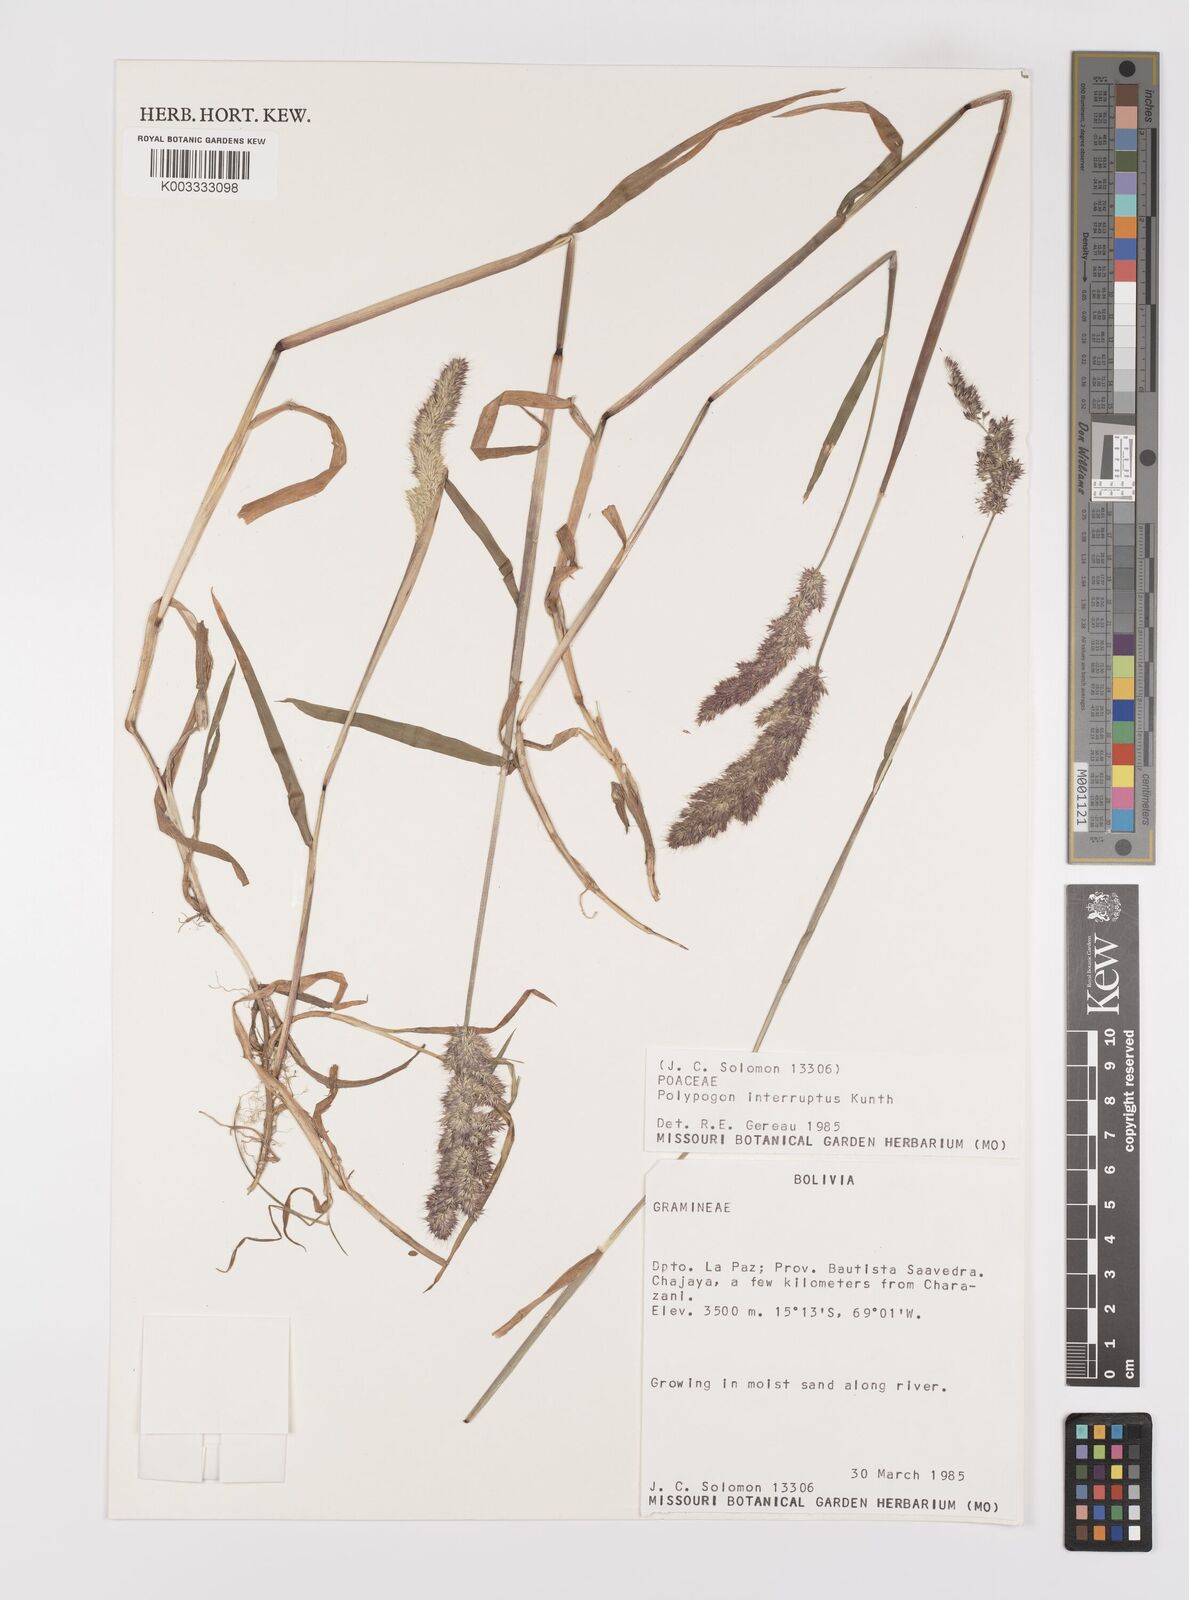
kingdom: Plantae
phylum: Tracheophyta
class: Liliopsida
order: Poales
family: Poaceae
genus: Polypogon
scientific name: Polypogon interruptus
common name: Ditch polypogon
